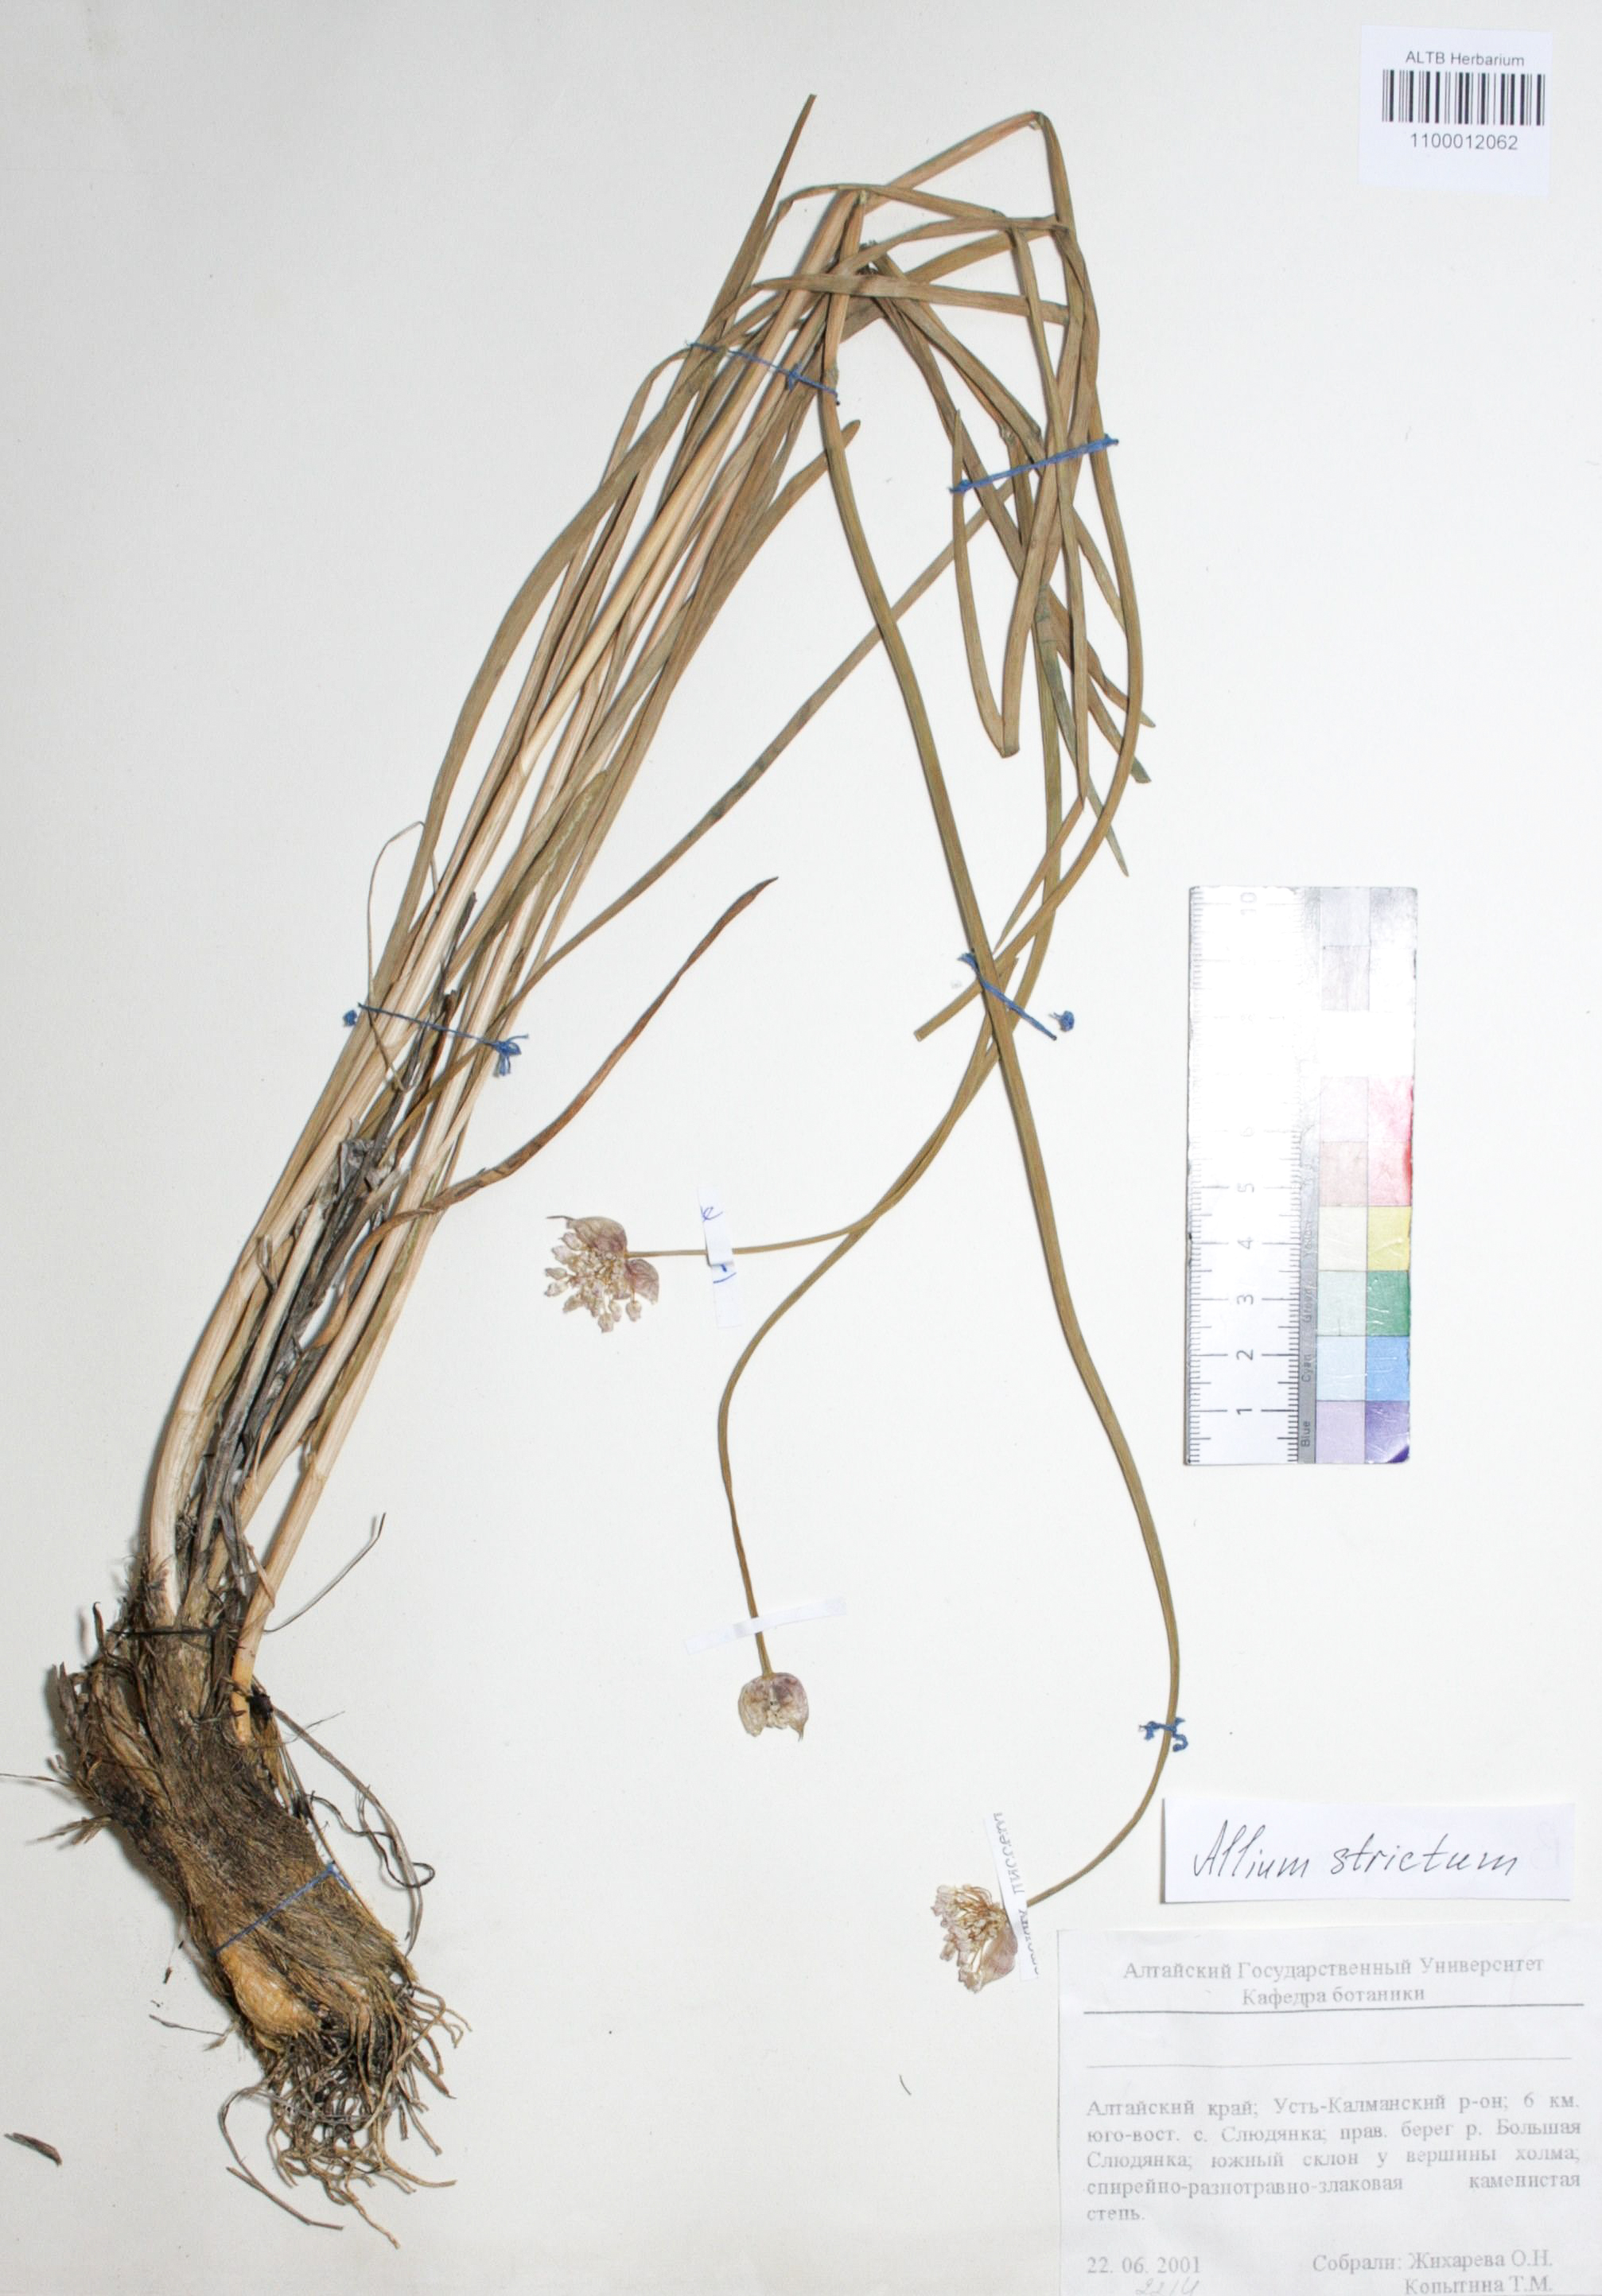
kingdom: Plantae
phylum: Tracheophyta
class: Liliopsida
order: Asparagales
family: Amaryllidaceae
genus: Allium
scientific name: Allium strictum
